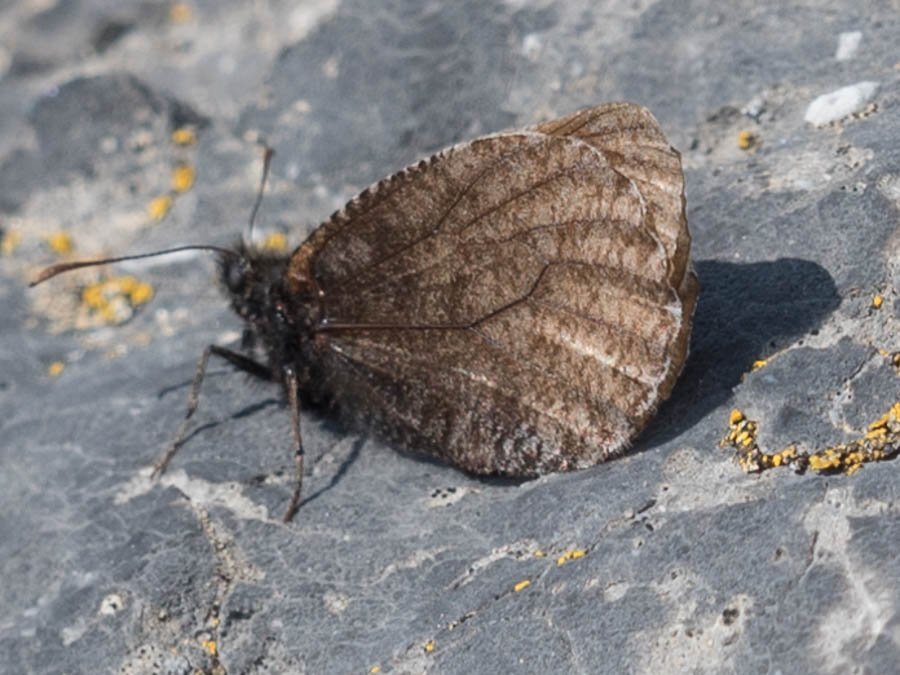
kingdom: Animalia
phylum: Arthropoda
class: Insecta
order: Lepidoptera
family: Nymphalidae
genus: Oeneis
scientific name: Oeneis melissa
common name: Melissa Arctic
